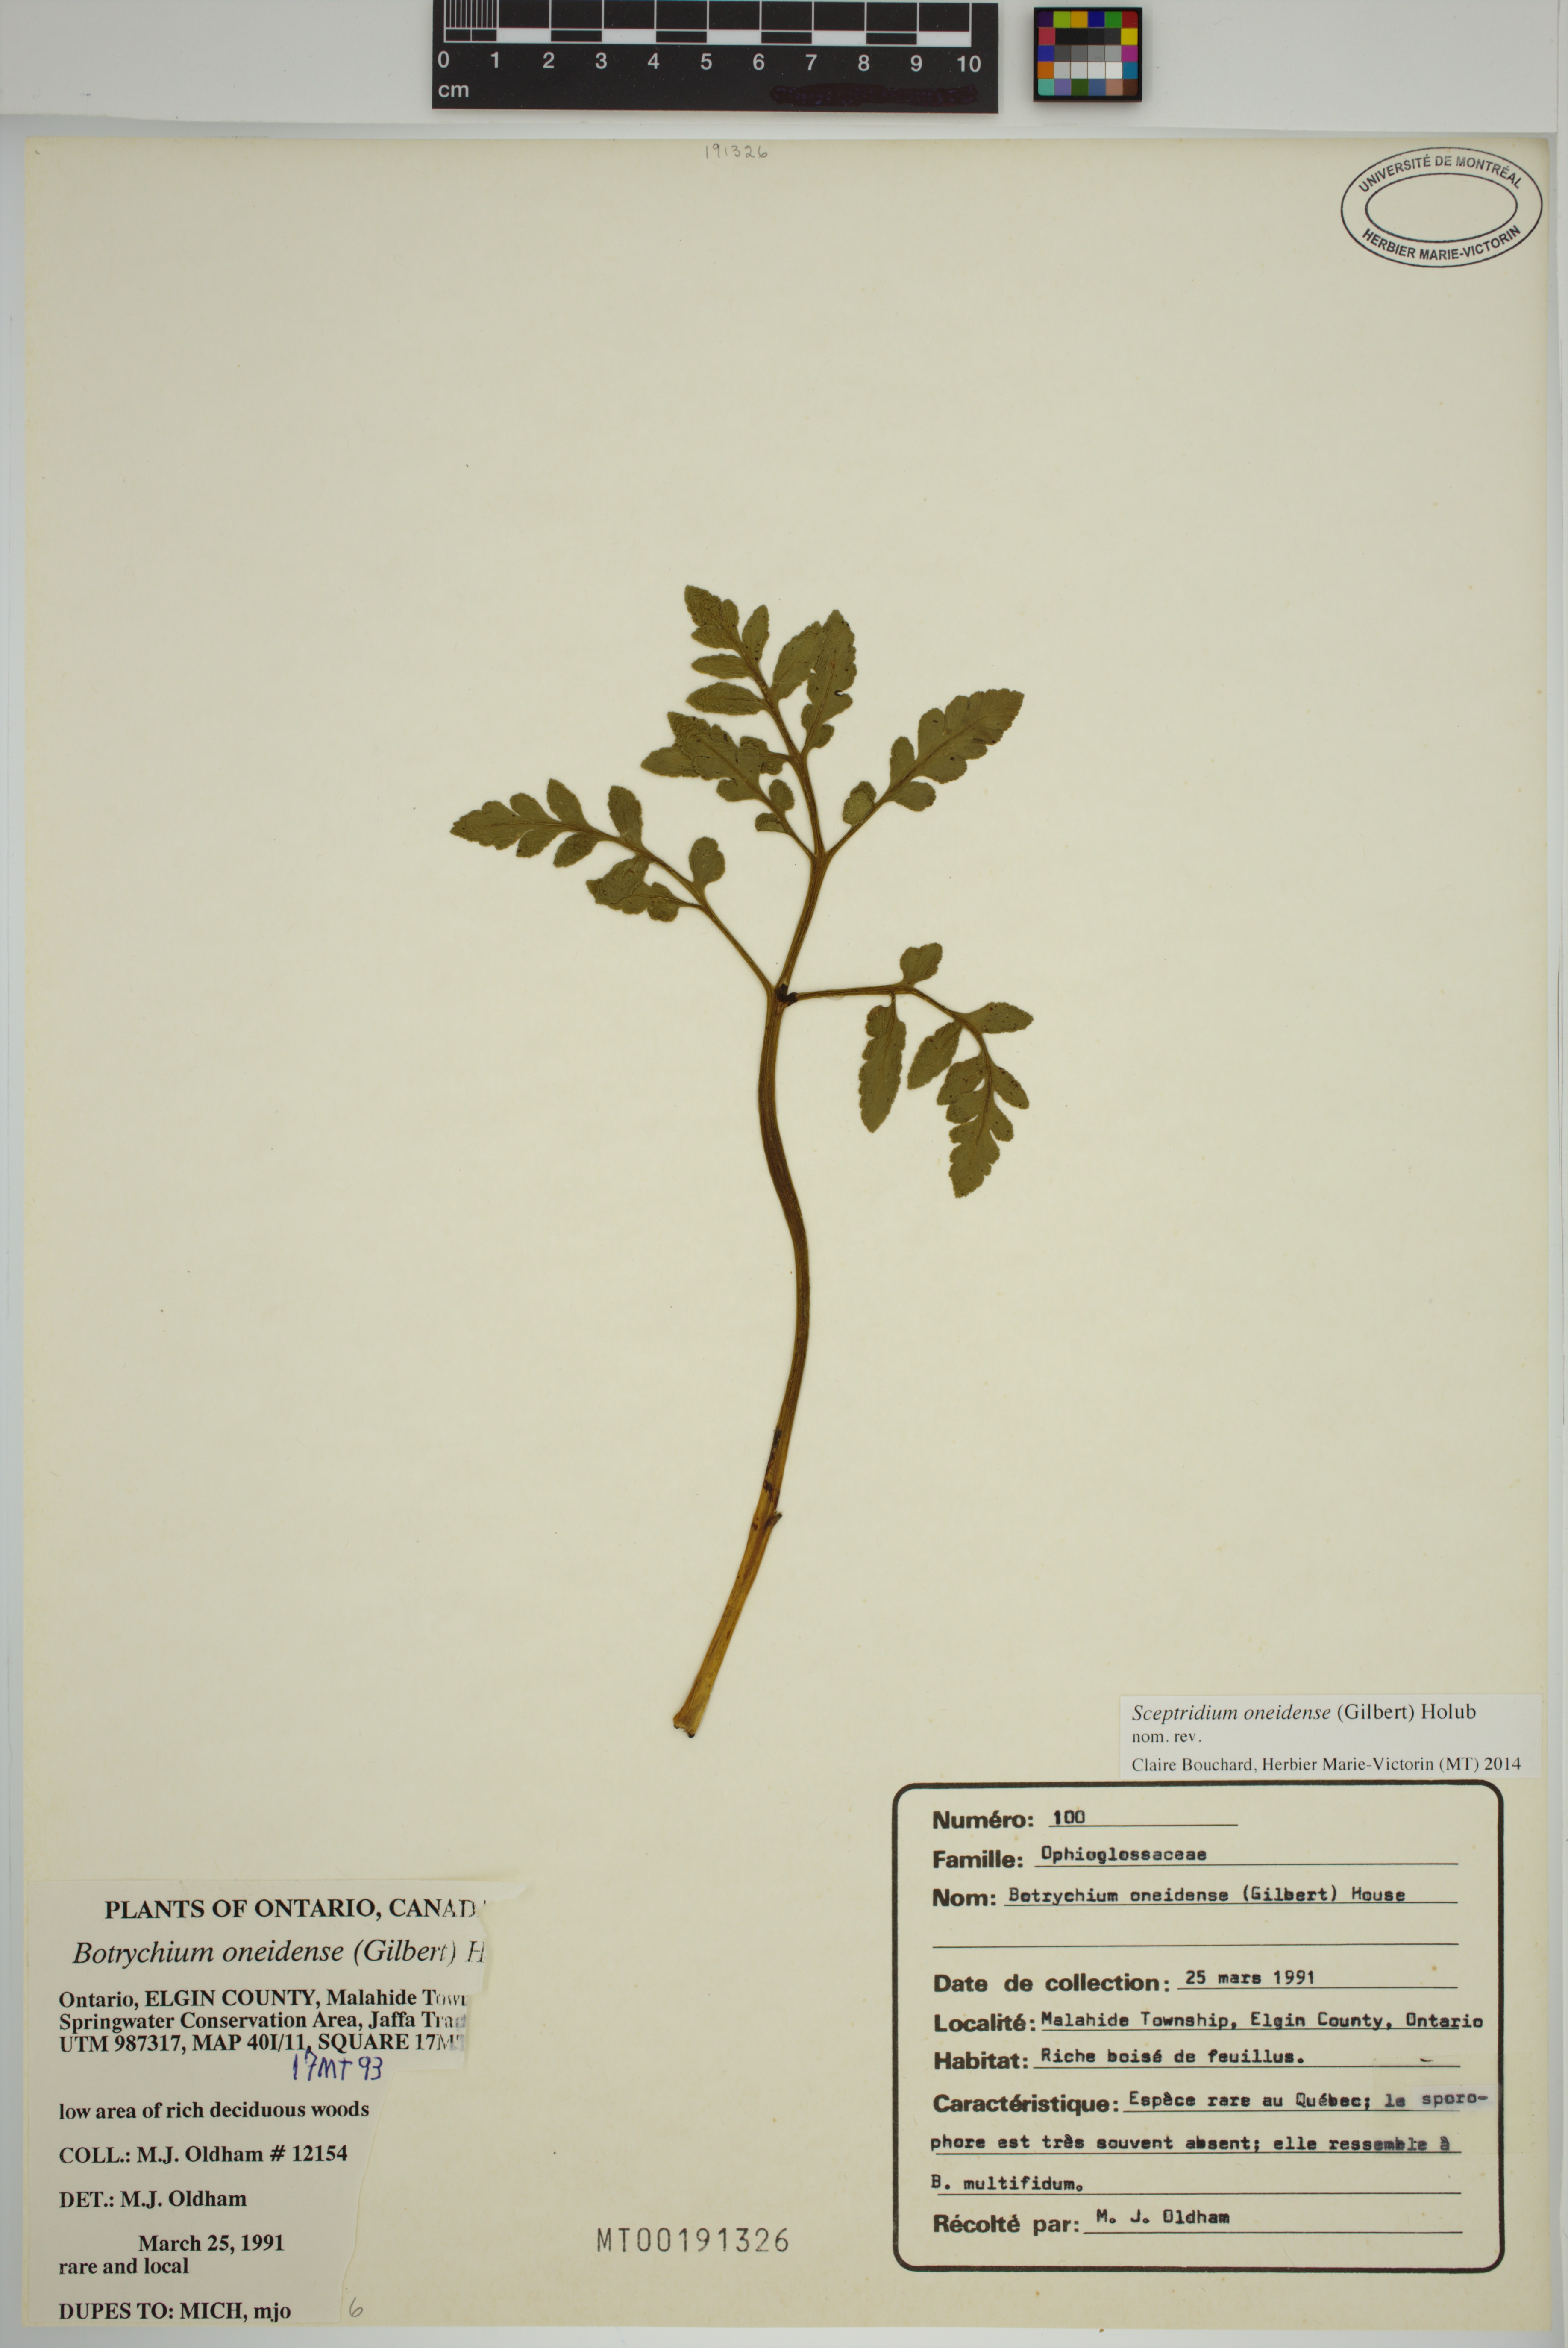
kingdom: Plantae
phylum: Tracheophyta
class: Polypodiopsida
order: Ophioglossales
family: Ophioglossaceae
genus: Sceptridium
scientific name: Sceptridium oneidense
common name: Blunt-lobed grapefern
